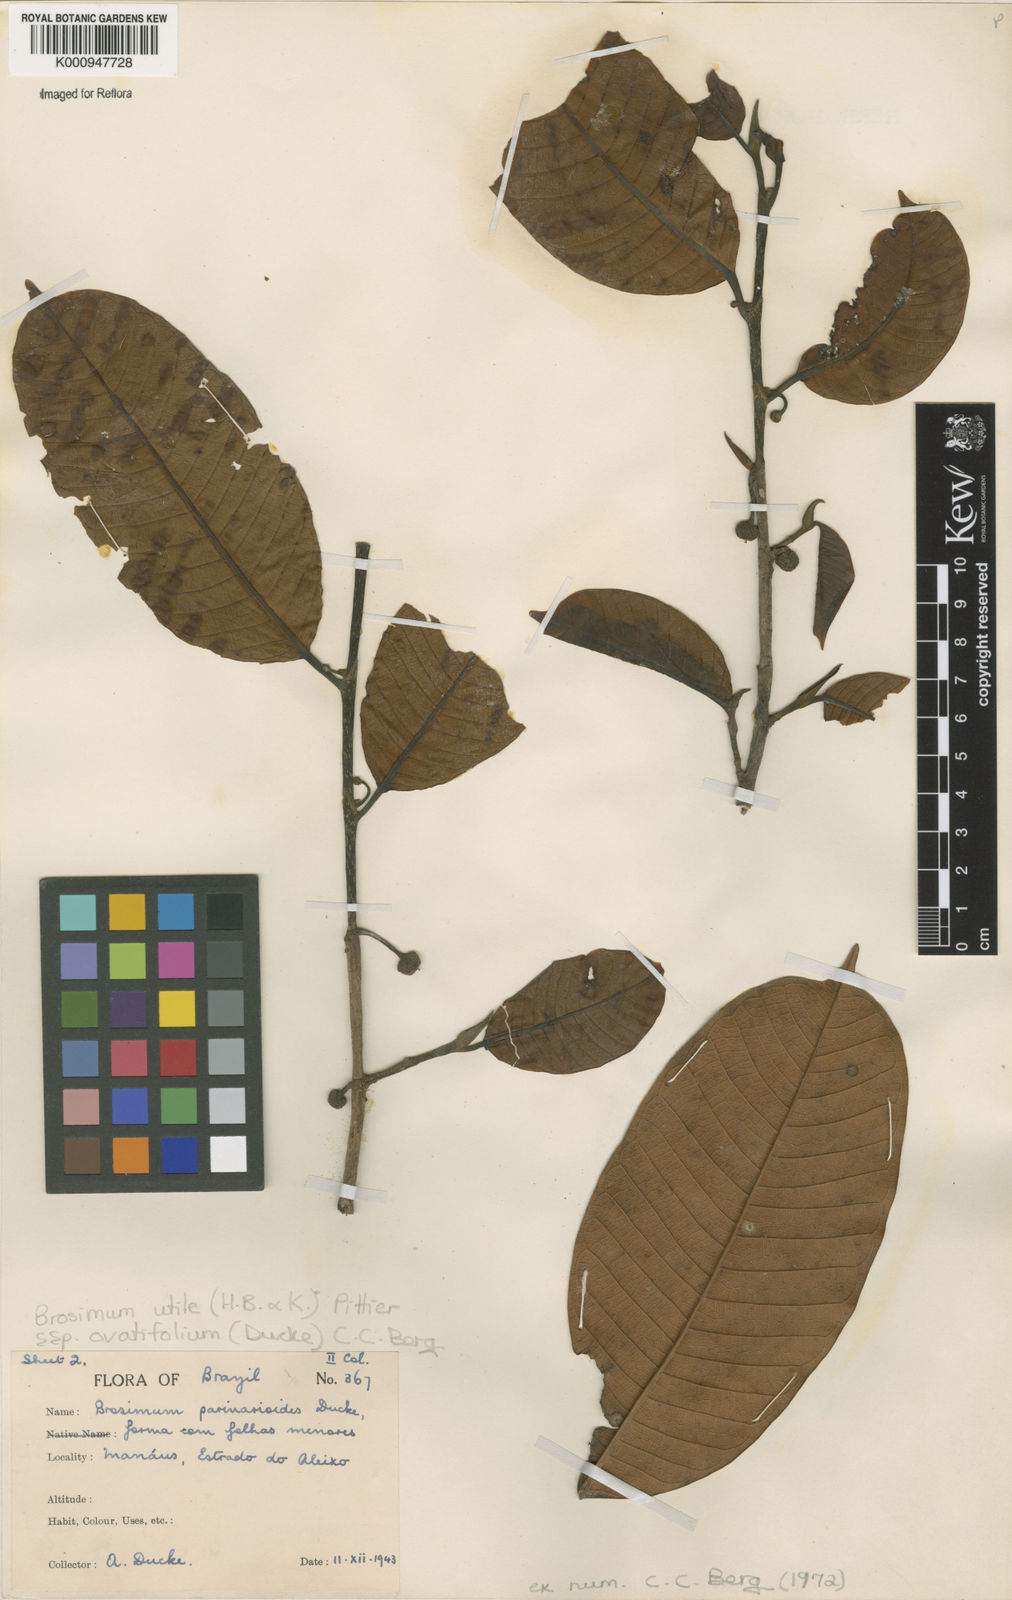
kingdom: Plantae
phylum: Tracheophyta
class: Magnoliopsida
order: Rosales
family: Moraceae
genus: Brosimum
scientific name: Brosimum utile
